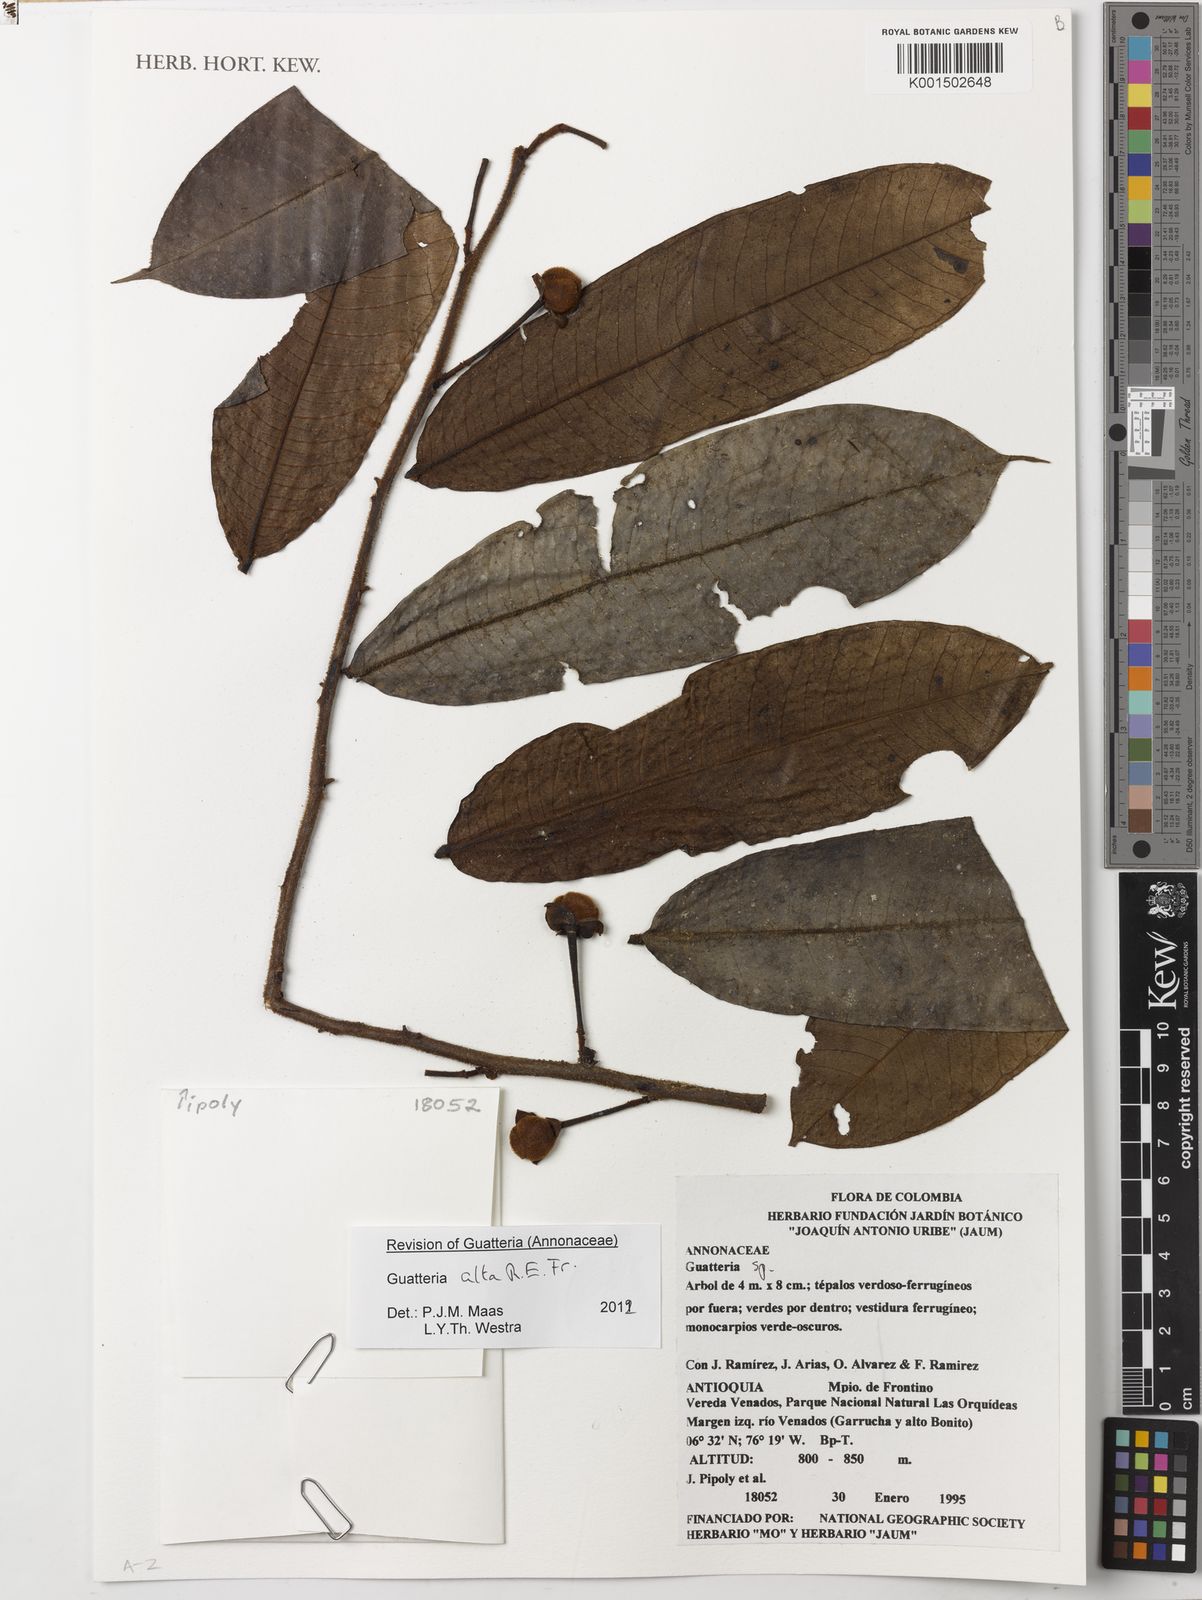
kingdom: Plantae
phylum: Tracheophyta
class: Magnoliopsida
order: Magnoliales
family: Annonaceae
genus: Guatteria
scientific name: Guatteria alta
